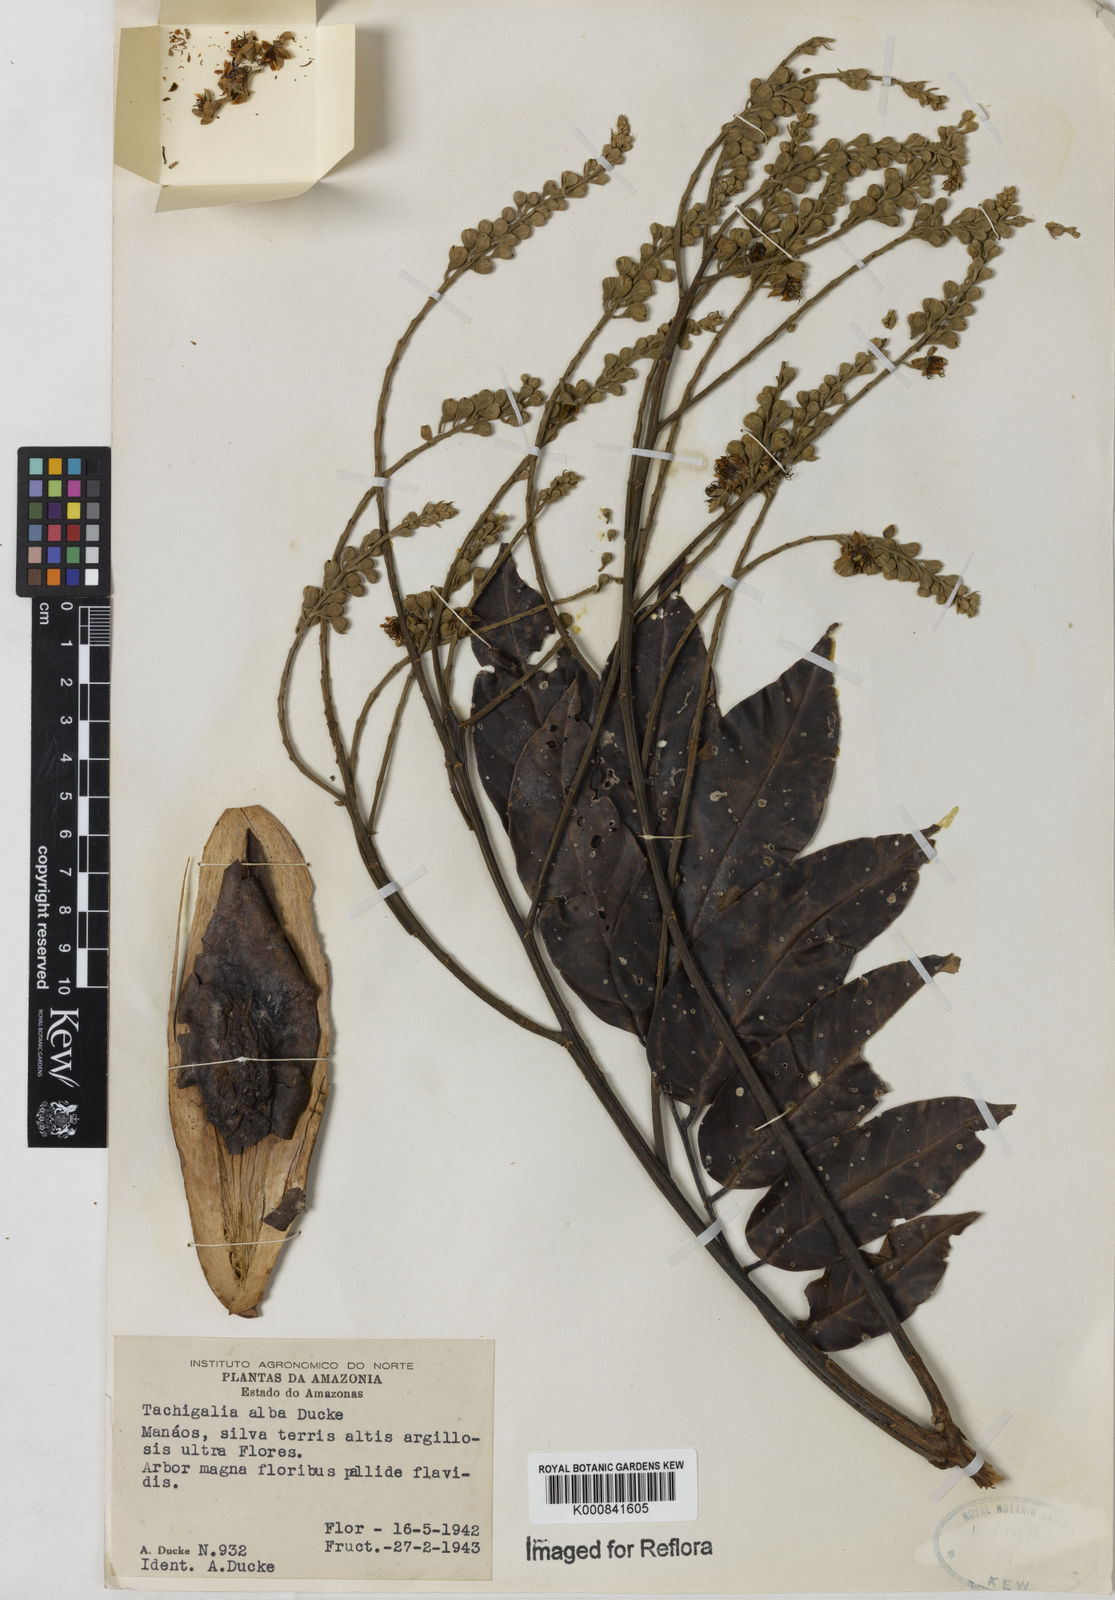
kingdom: Plantae
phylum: Tracheophyta
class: Magnoliopsida
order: Fabales
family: Fabaceae
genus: Tachigali
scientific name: Tachigali alba
